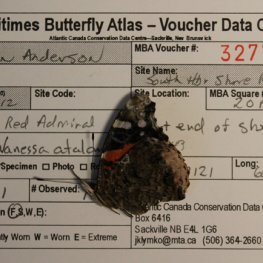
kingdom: Animalia
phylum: Arthropoda
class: Insecta
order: Lepidoptera
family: Nymphalidae
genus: Vanessa
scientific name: Vanessa atalanta
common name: Red Admiral
